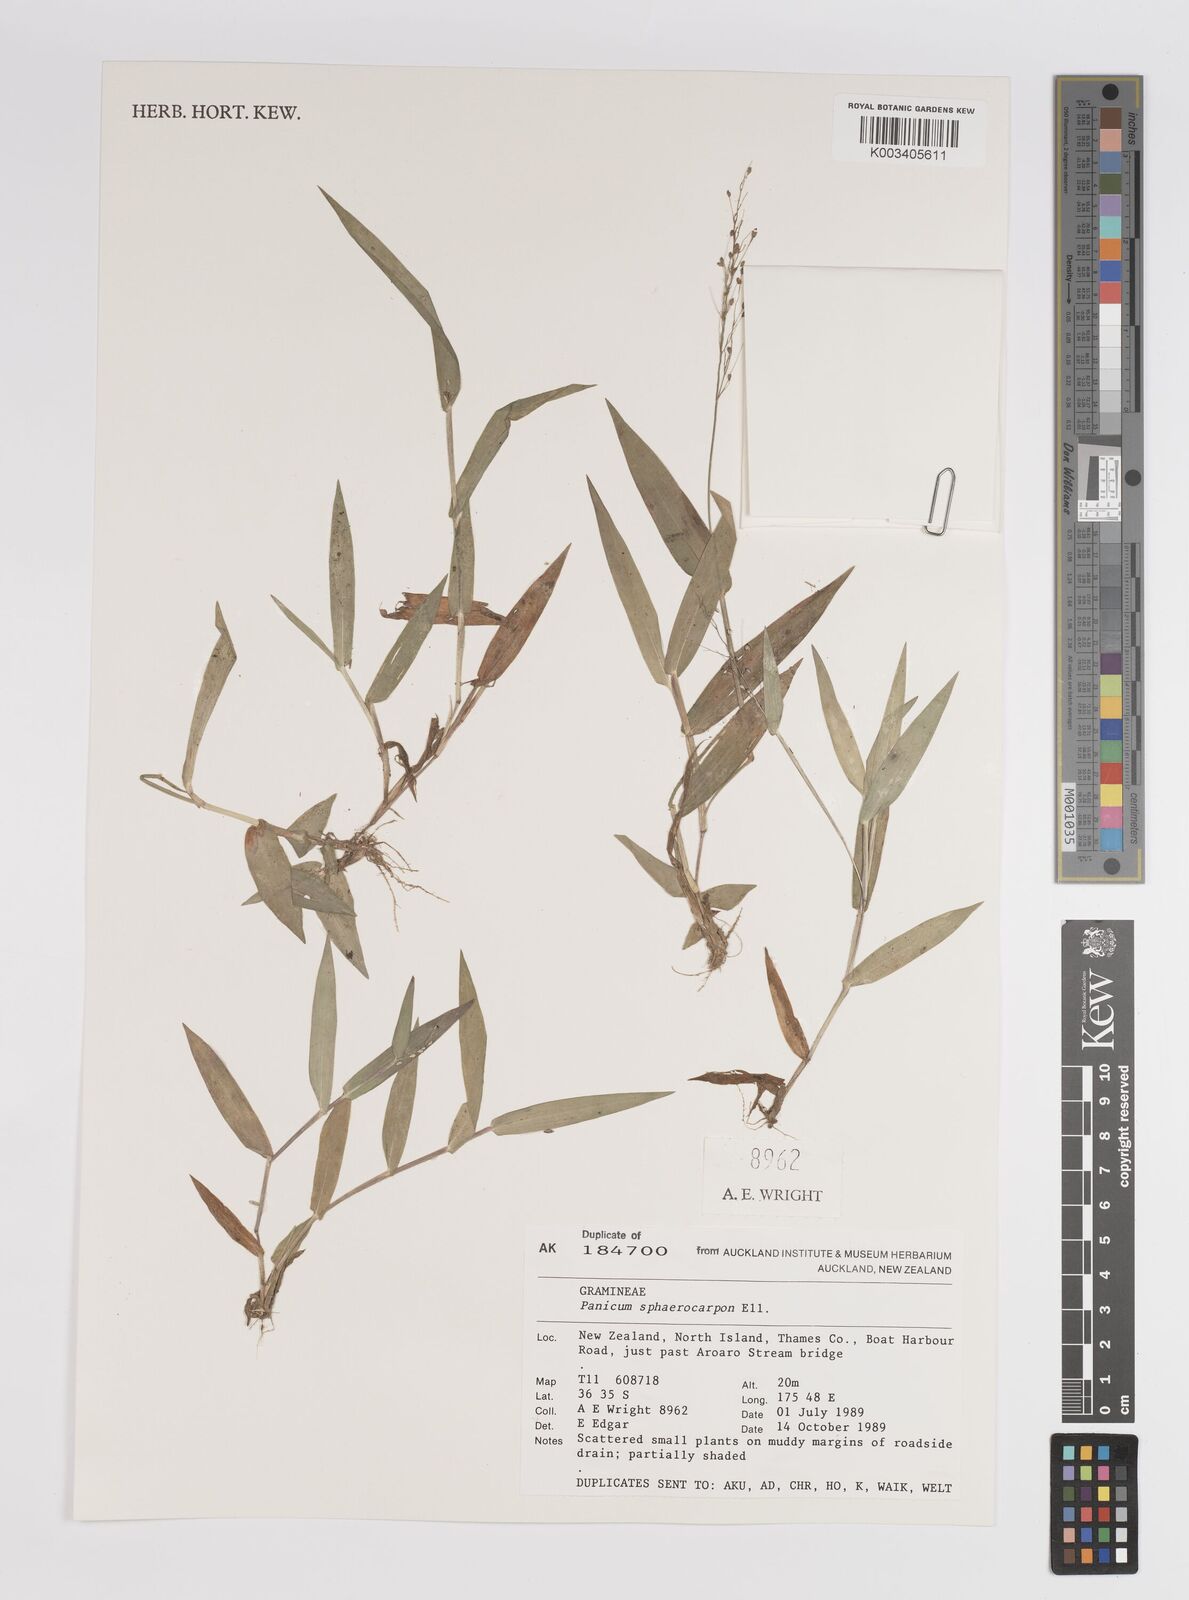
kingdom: Plantae
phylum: Tracheophyta
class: Liliopsida
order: Poales
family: Poaceae
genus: Dichanthelium
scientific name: Dichanthelium sphaerocarpon
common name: Round-fruited panicgrass
